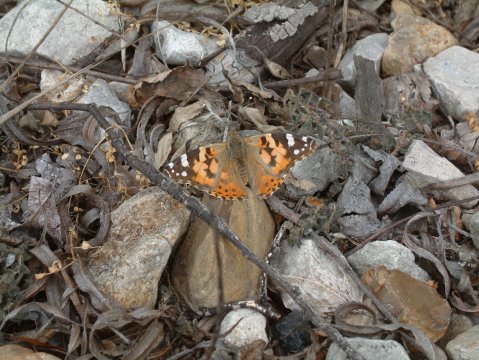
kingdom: Animalia
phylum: Arthropoda
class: Insecta
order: Lepidoptera
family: Nymphalidae
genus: Vanessa
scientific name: Vanessa cardui
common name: Painted Lady
